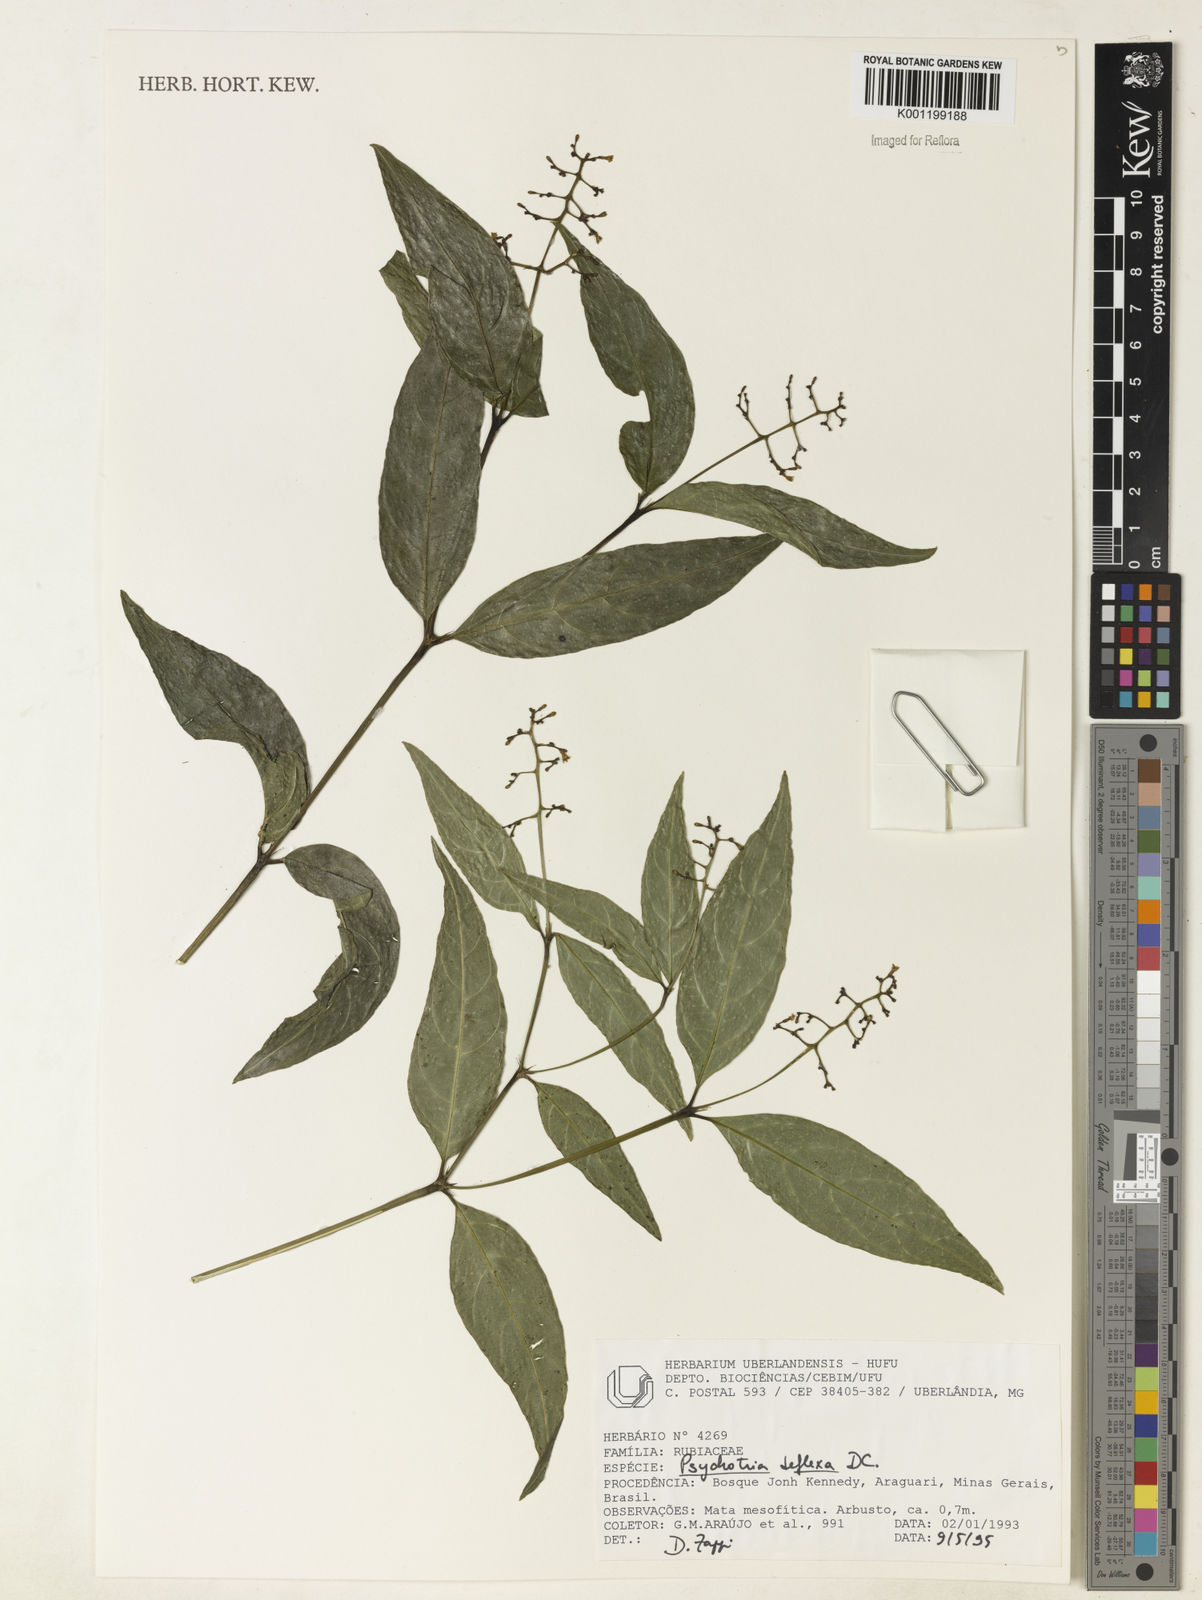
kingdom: Plantae
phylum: Tracheophyta
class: Magnoliopsida
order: Gentianales
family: Rubiaceae
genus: Palicourea
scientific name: Palicourea deflexa
